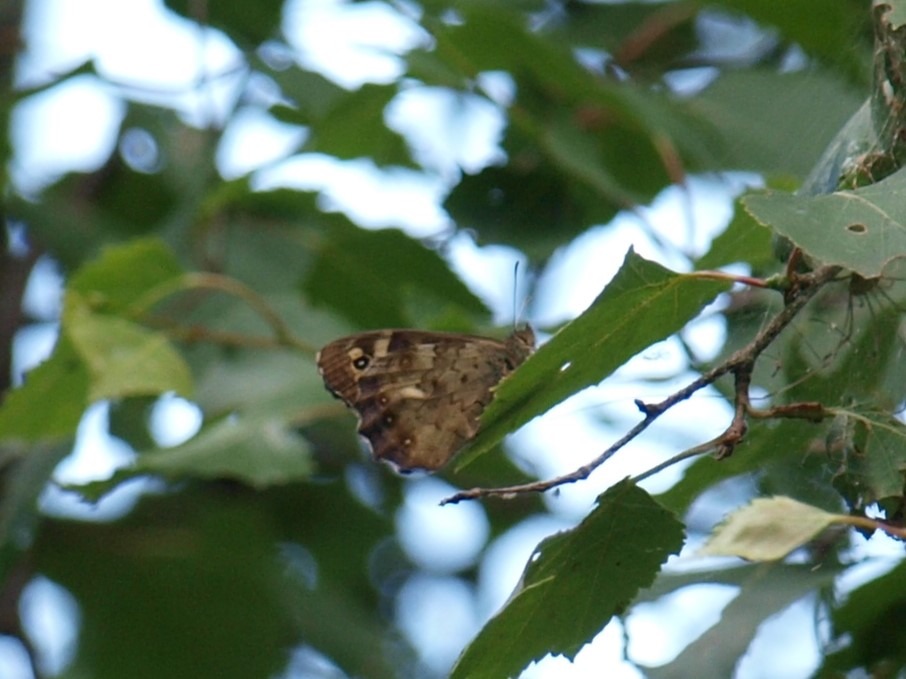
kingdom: Animalia
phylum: Arthropoda
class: Insecta
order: Lepidoptera
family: Nymphalidae
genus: Pararge
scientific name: Pararge aegeria
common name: Skovrandøje
